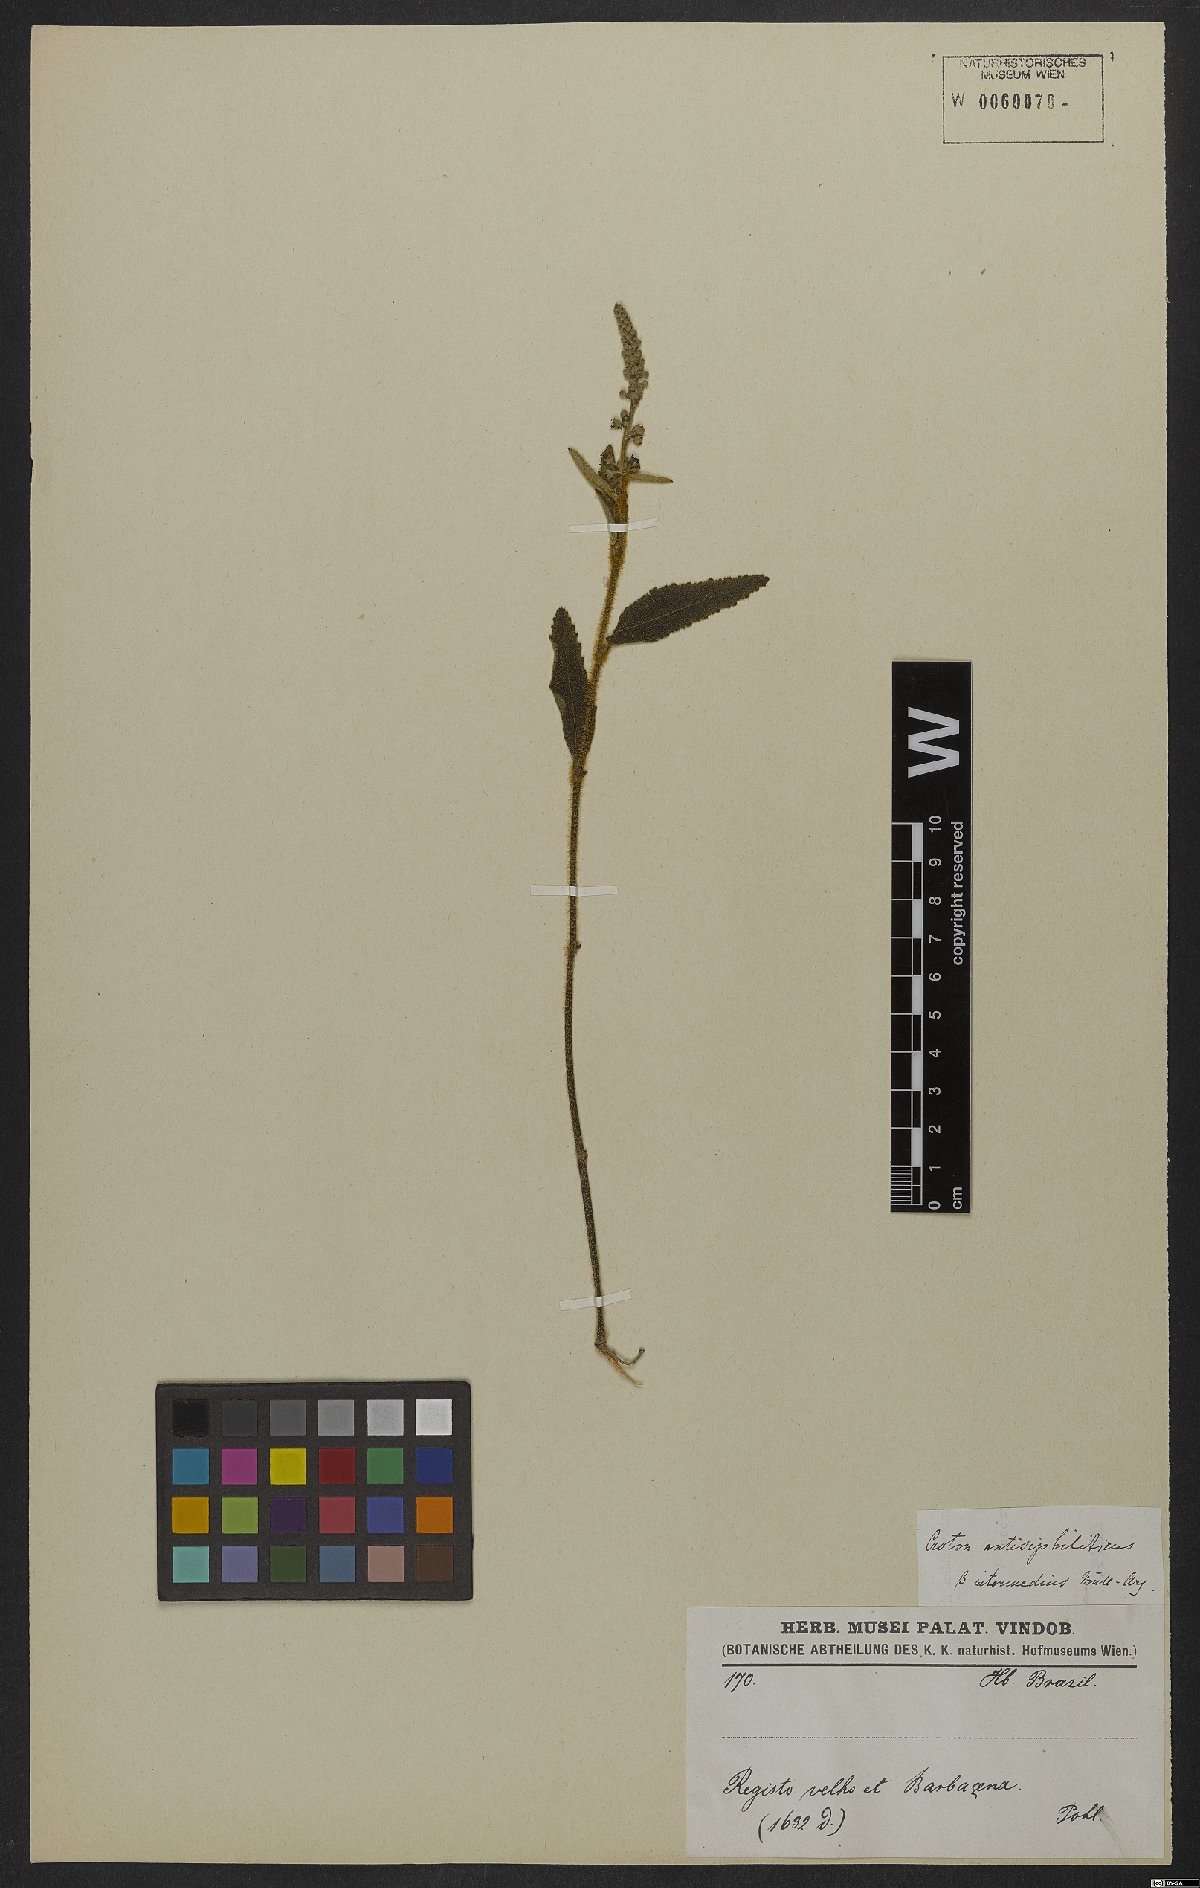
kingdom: Plantae
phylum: Tracheophyta
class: Magnoliopsida
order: Malpighiales
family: Euphorbiaceae
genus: Croton
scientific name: Croton antisyphiliticus
